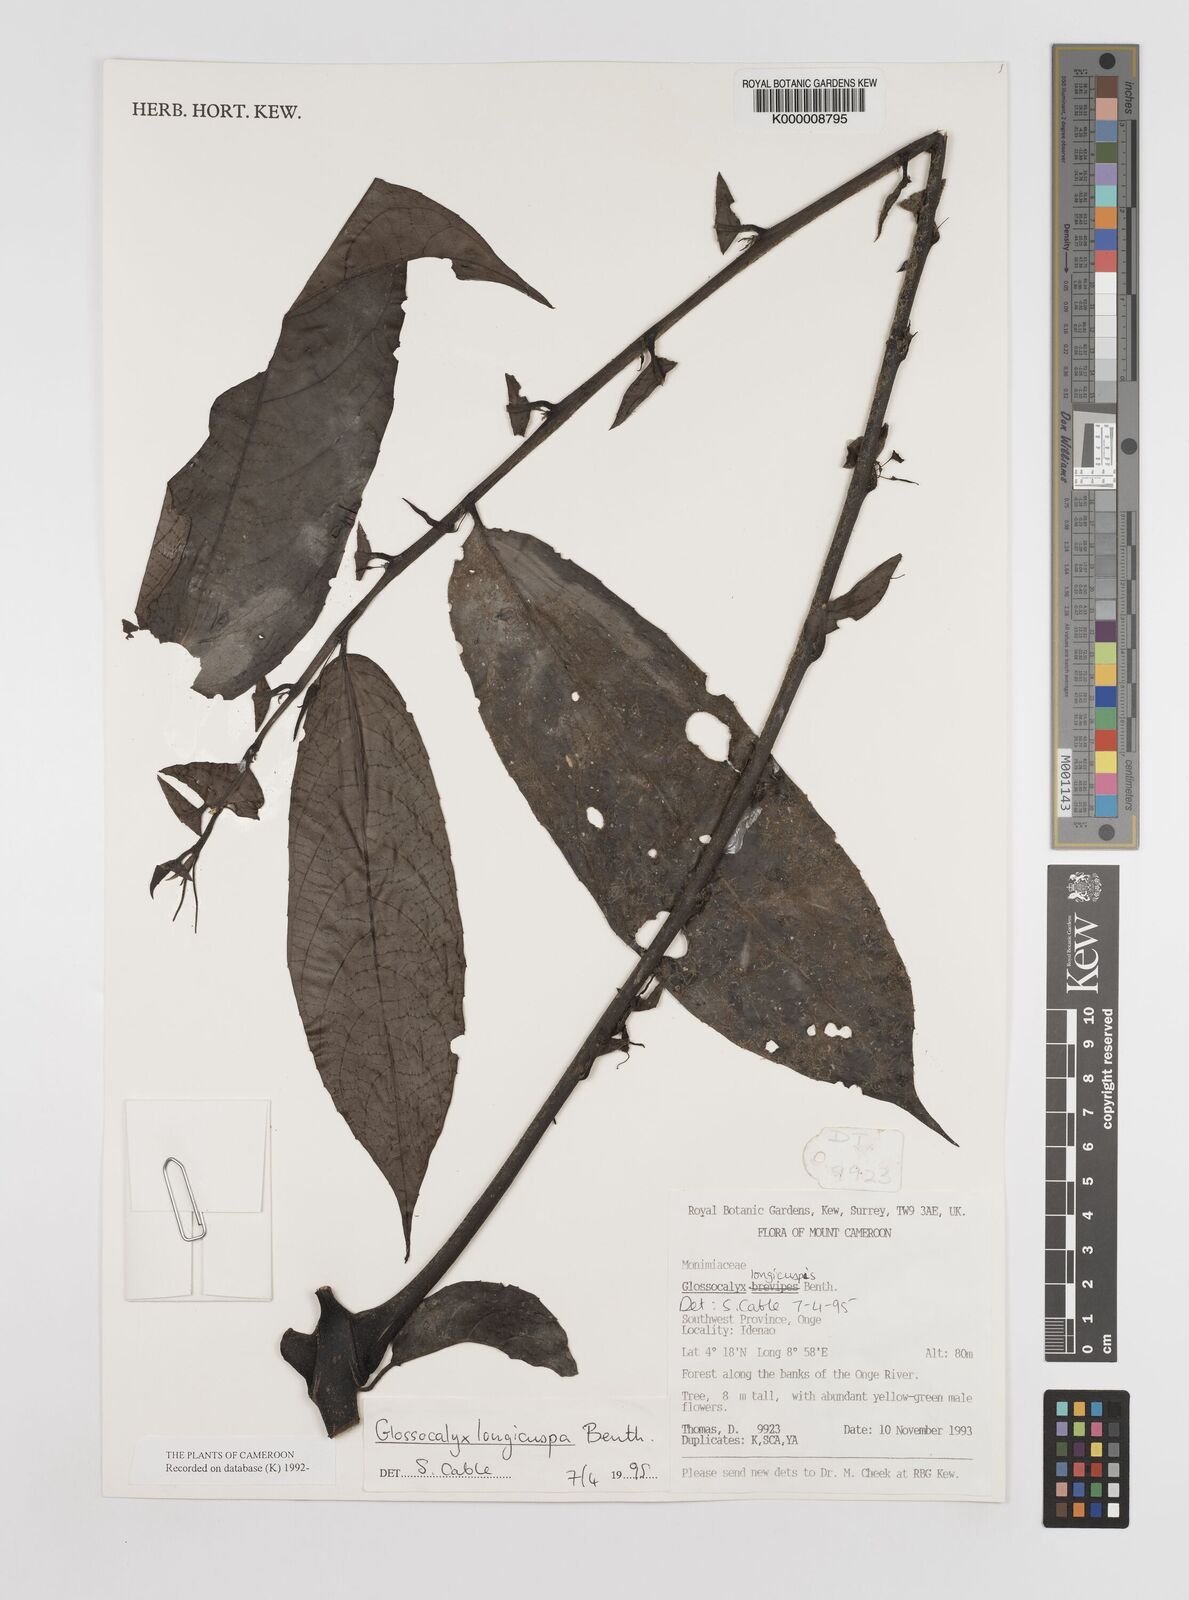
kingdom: Plantae
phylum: Tracheophyta
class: Magnoliopsida
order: Laurales
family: Siparunaceae
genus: Glossocalyx
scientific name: Glossocalyx longicuspis
